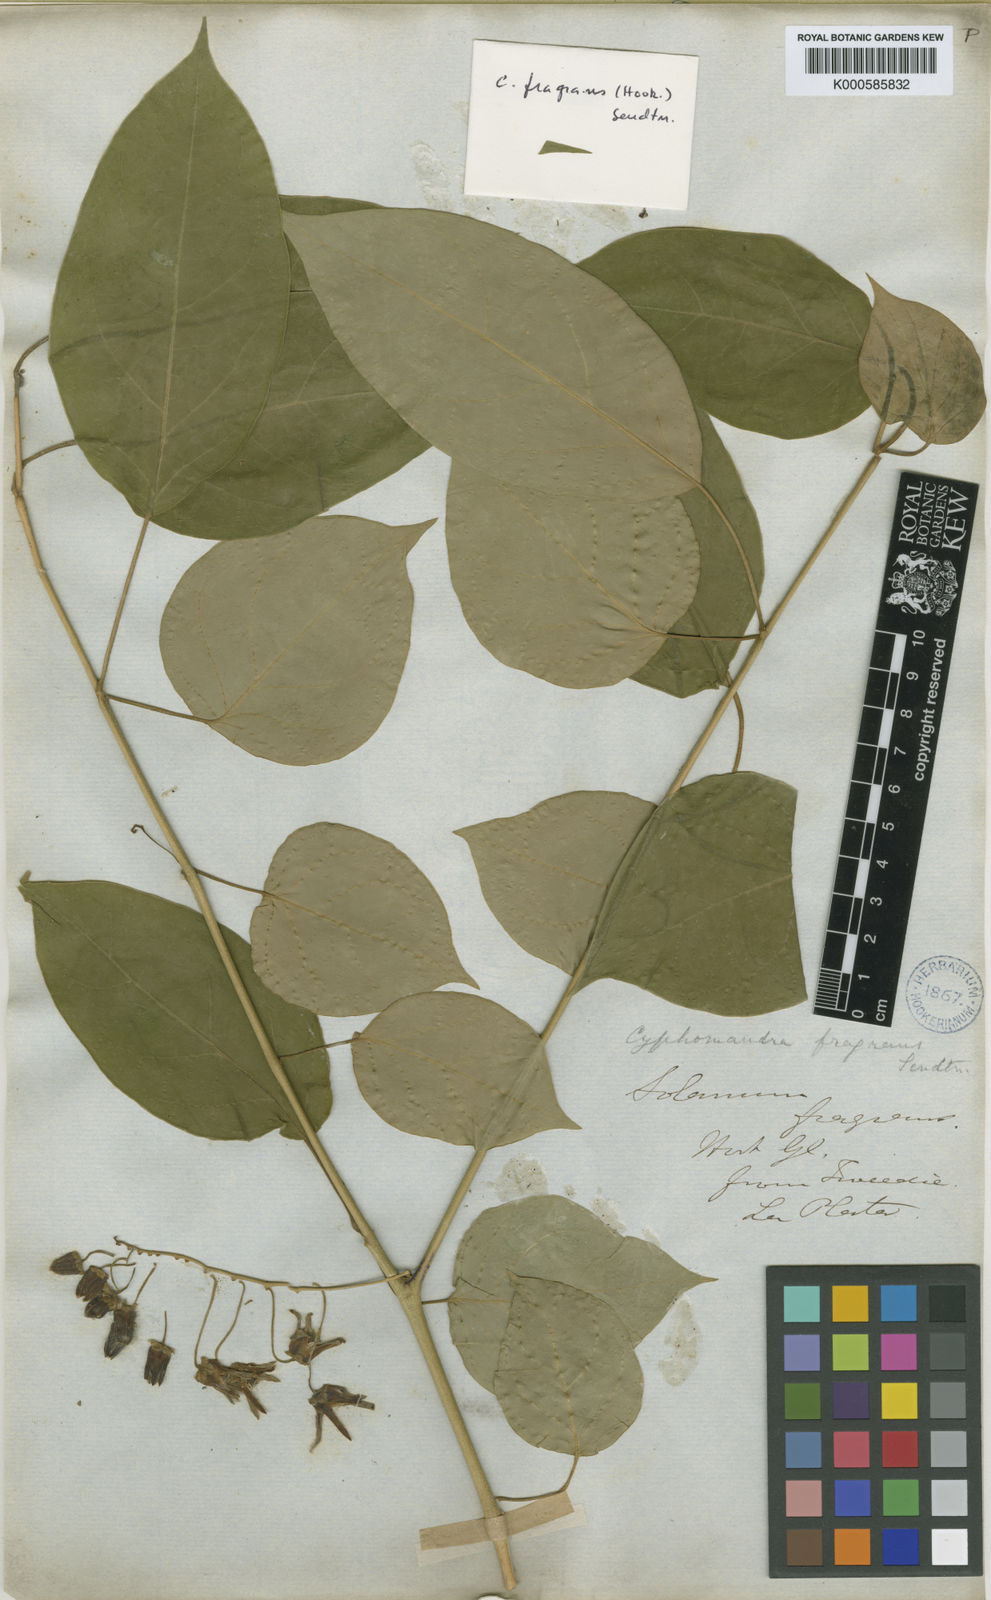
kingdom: Plantae
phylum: Tracheophyta
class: Magnoliopsida
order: Solanales
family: Solanaceae
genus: Solanum
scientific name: Solanum diploconos
